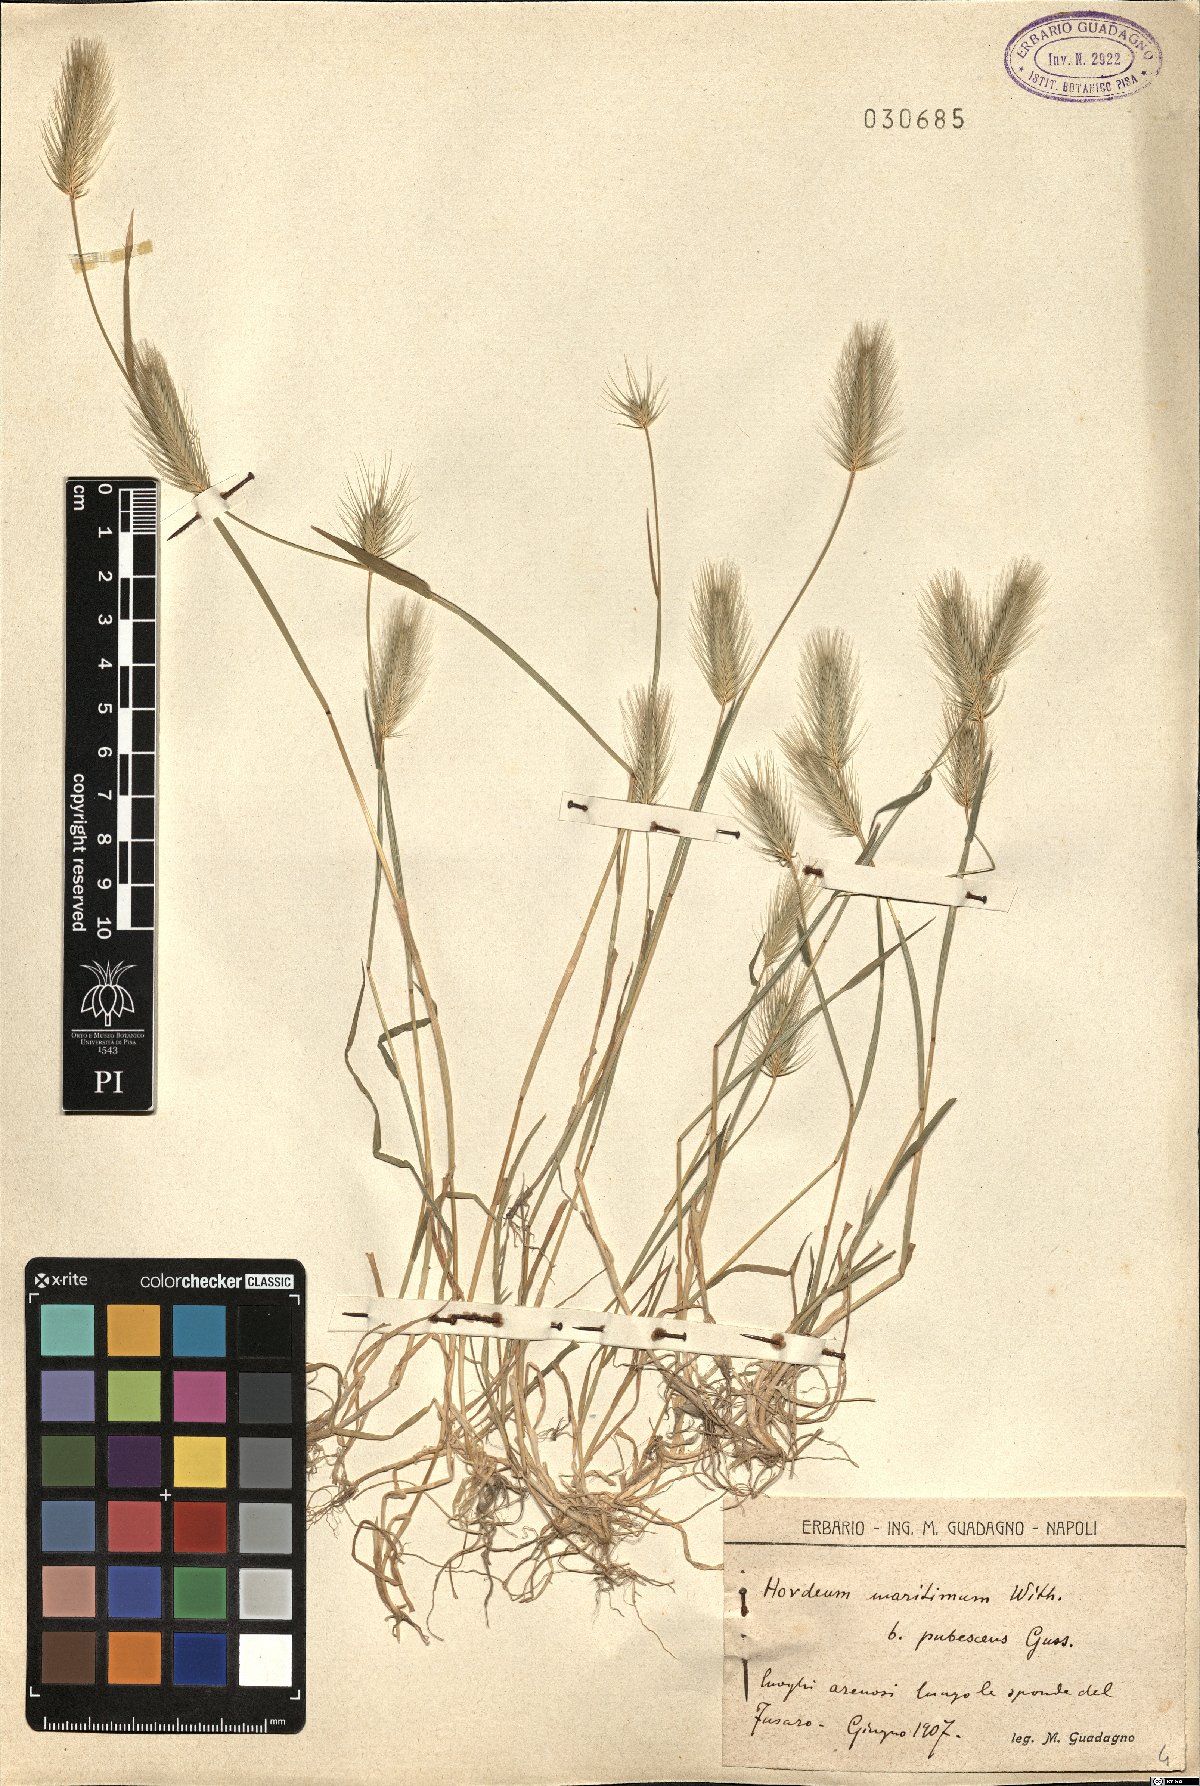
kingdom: Plantae
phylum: Tracheophyta
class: Liliopsida
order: Poales
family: Poaceae
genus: Hordeum
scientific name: Hordeum marinum
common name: Sea barley
